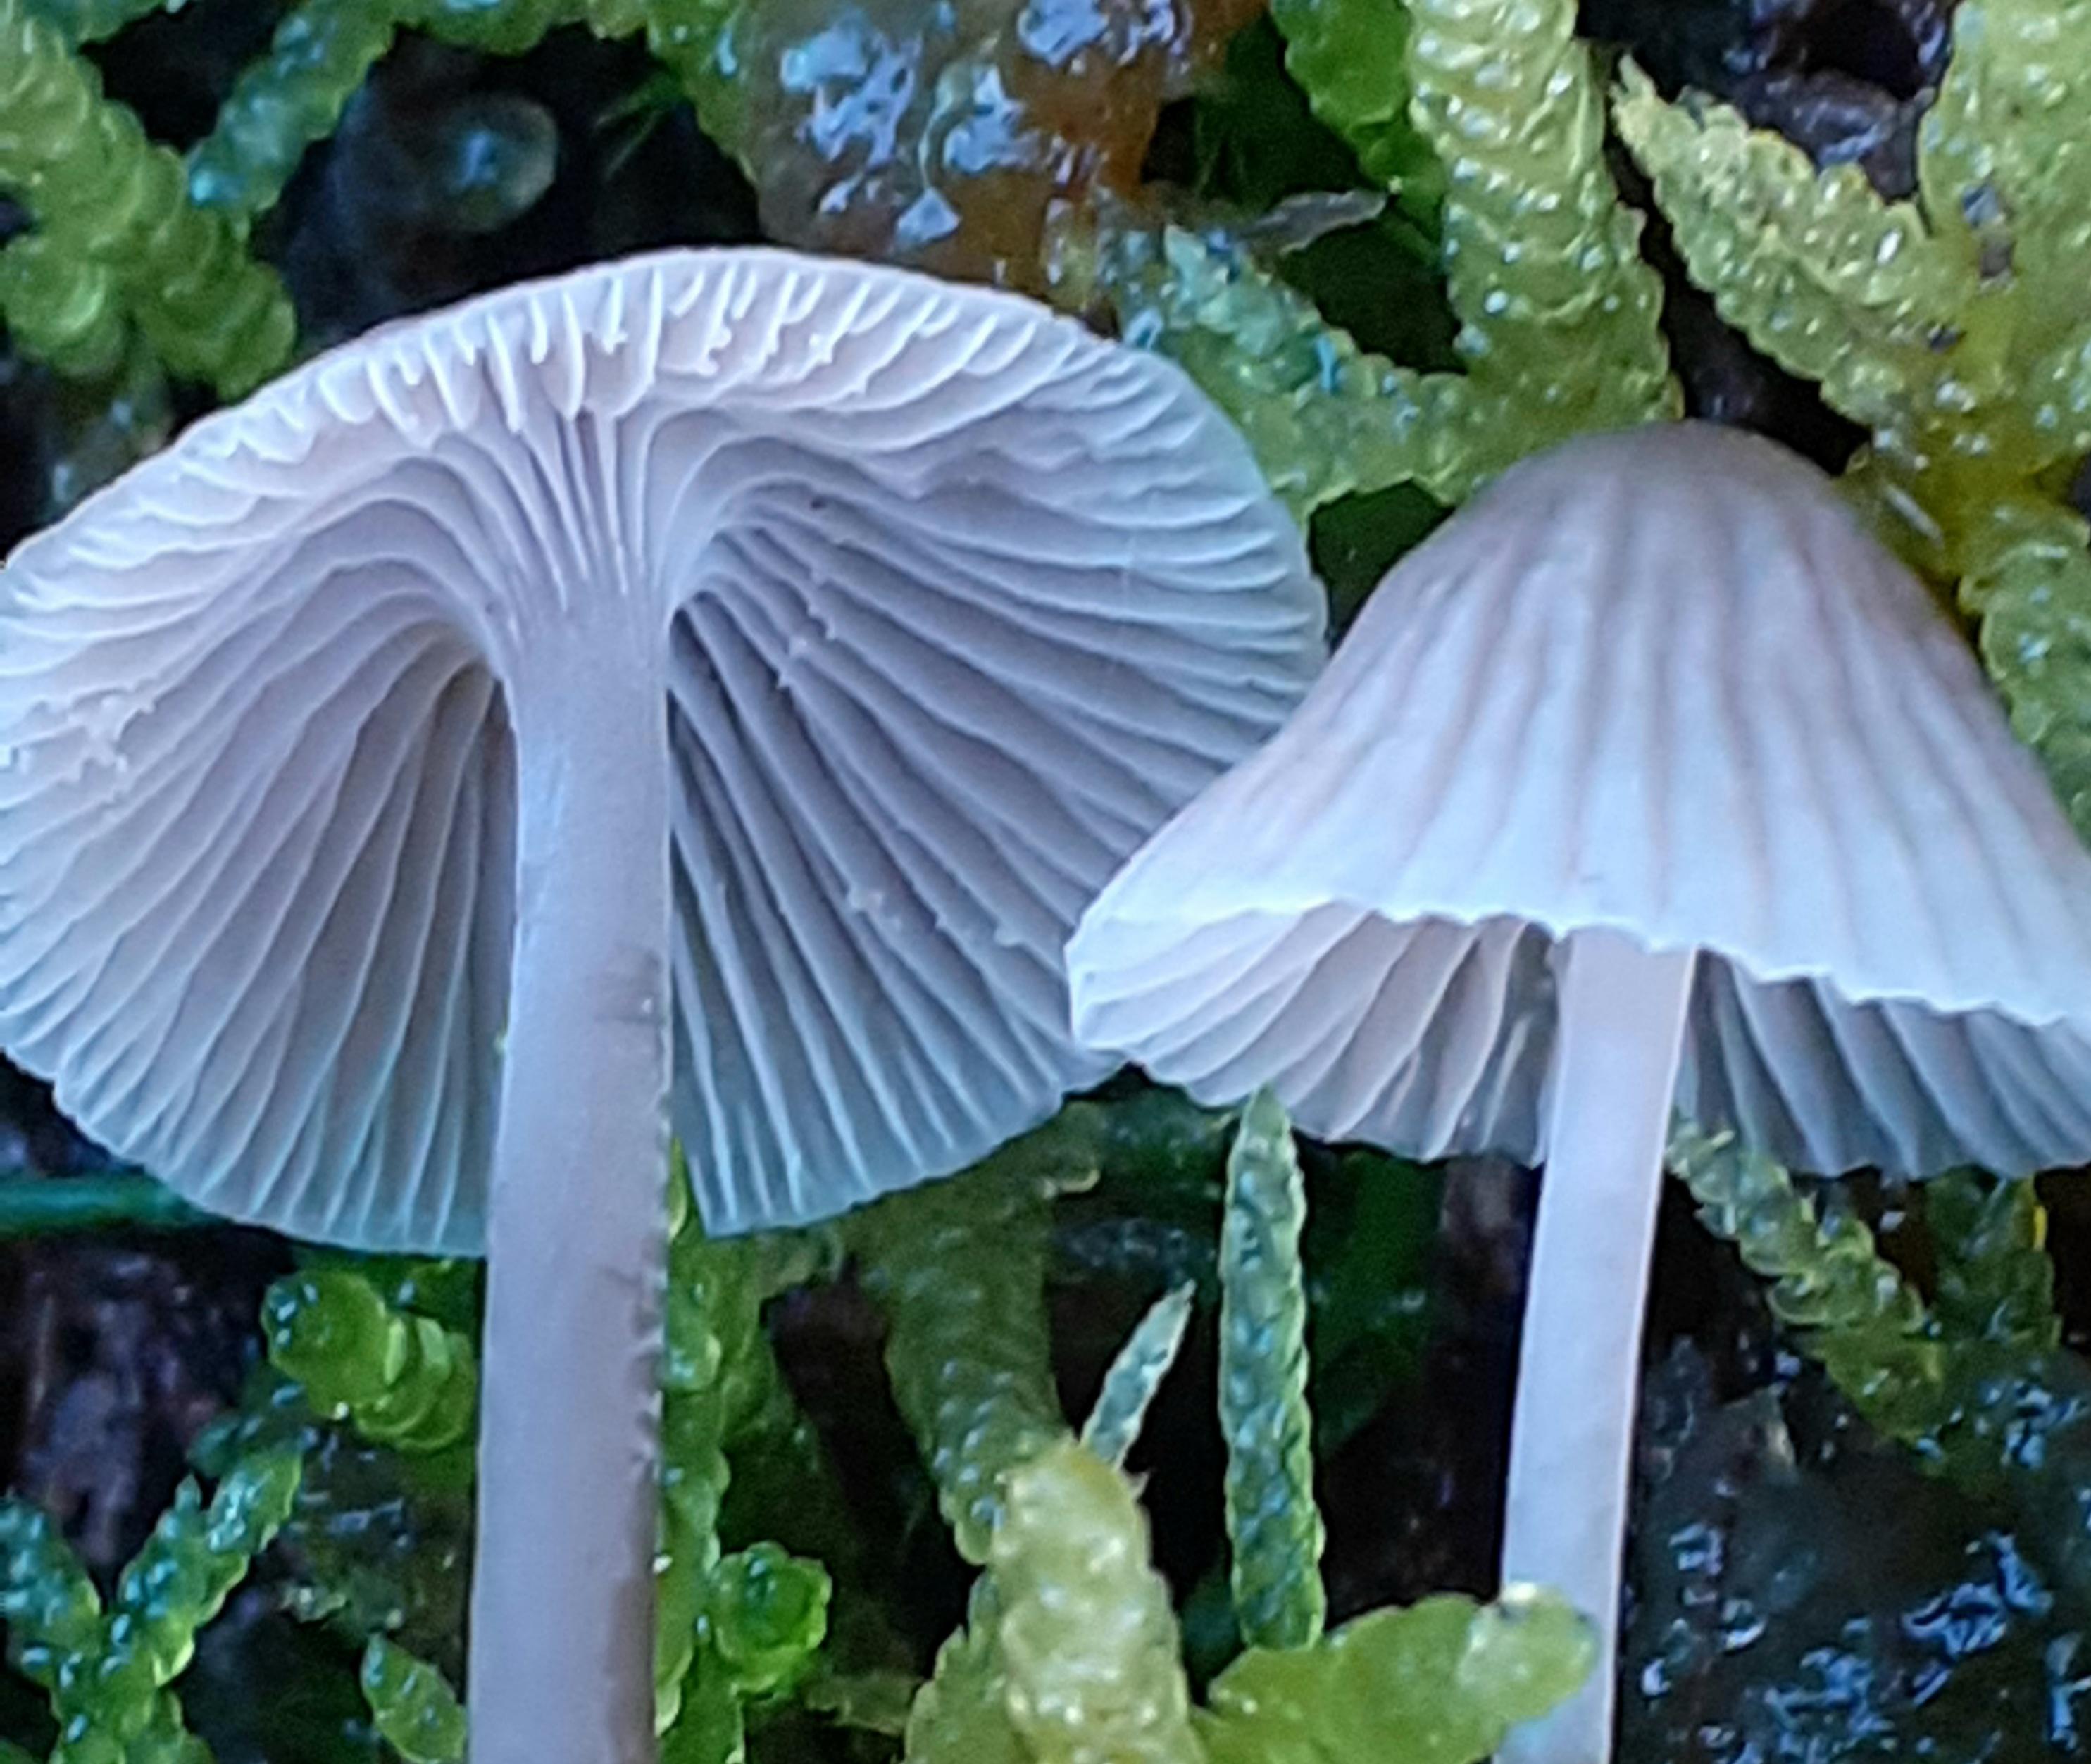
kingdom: Fungi
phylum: Basidiomycota
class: Agaricomycetes
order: Agaricales
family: Mycenaceae
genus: Mycena
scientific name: Mycena cinerella
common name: mel-huesvamp
